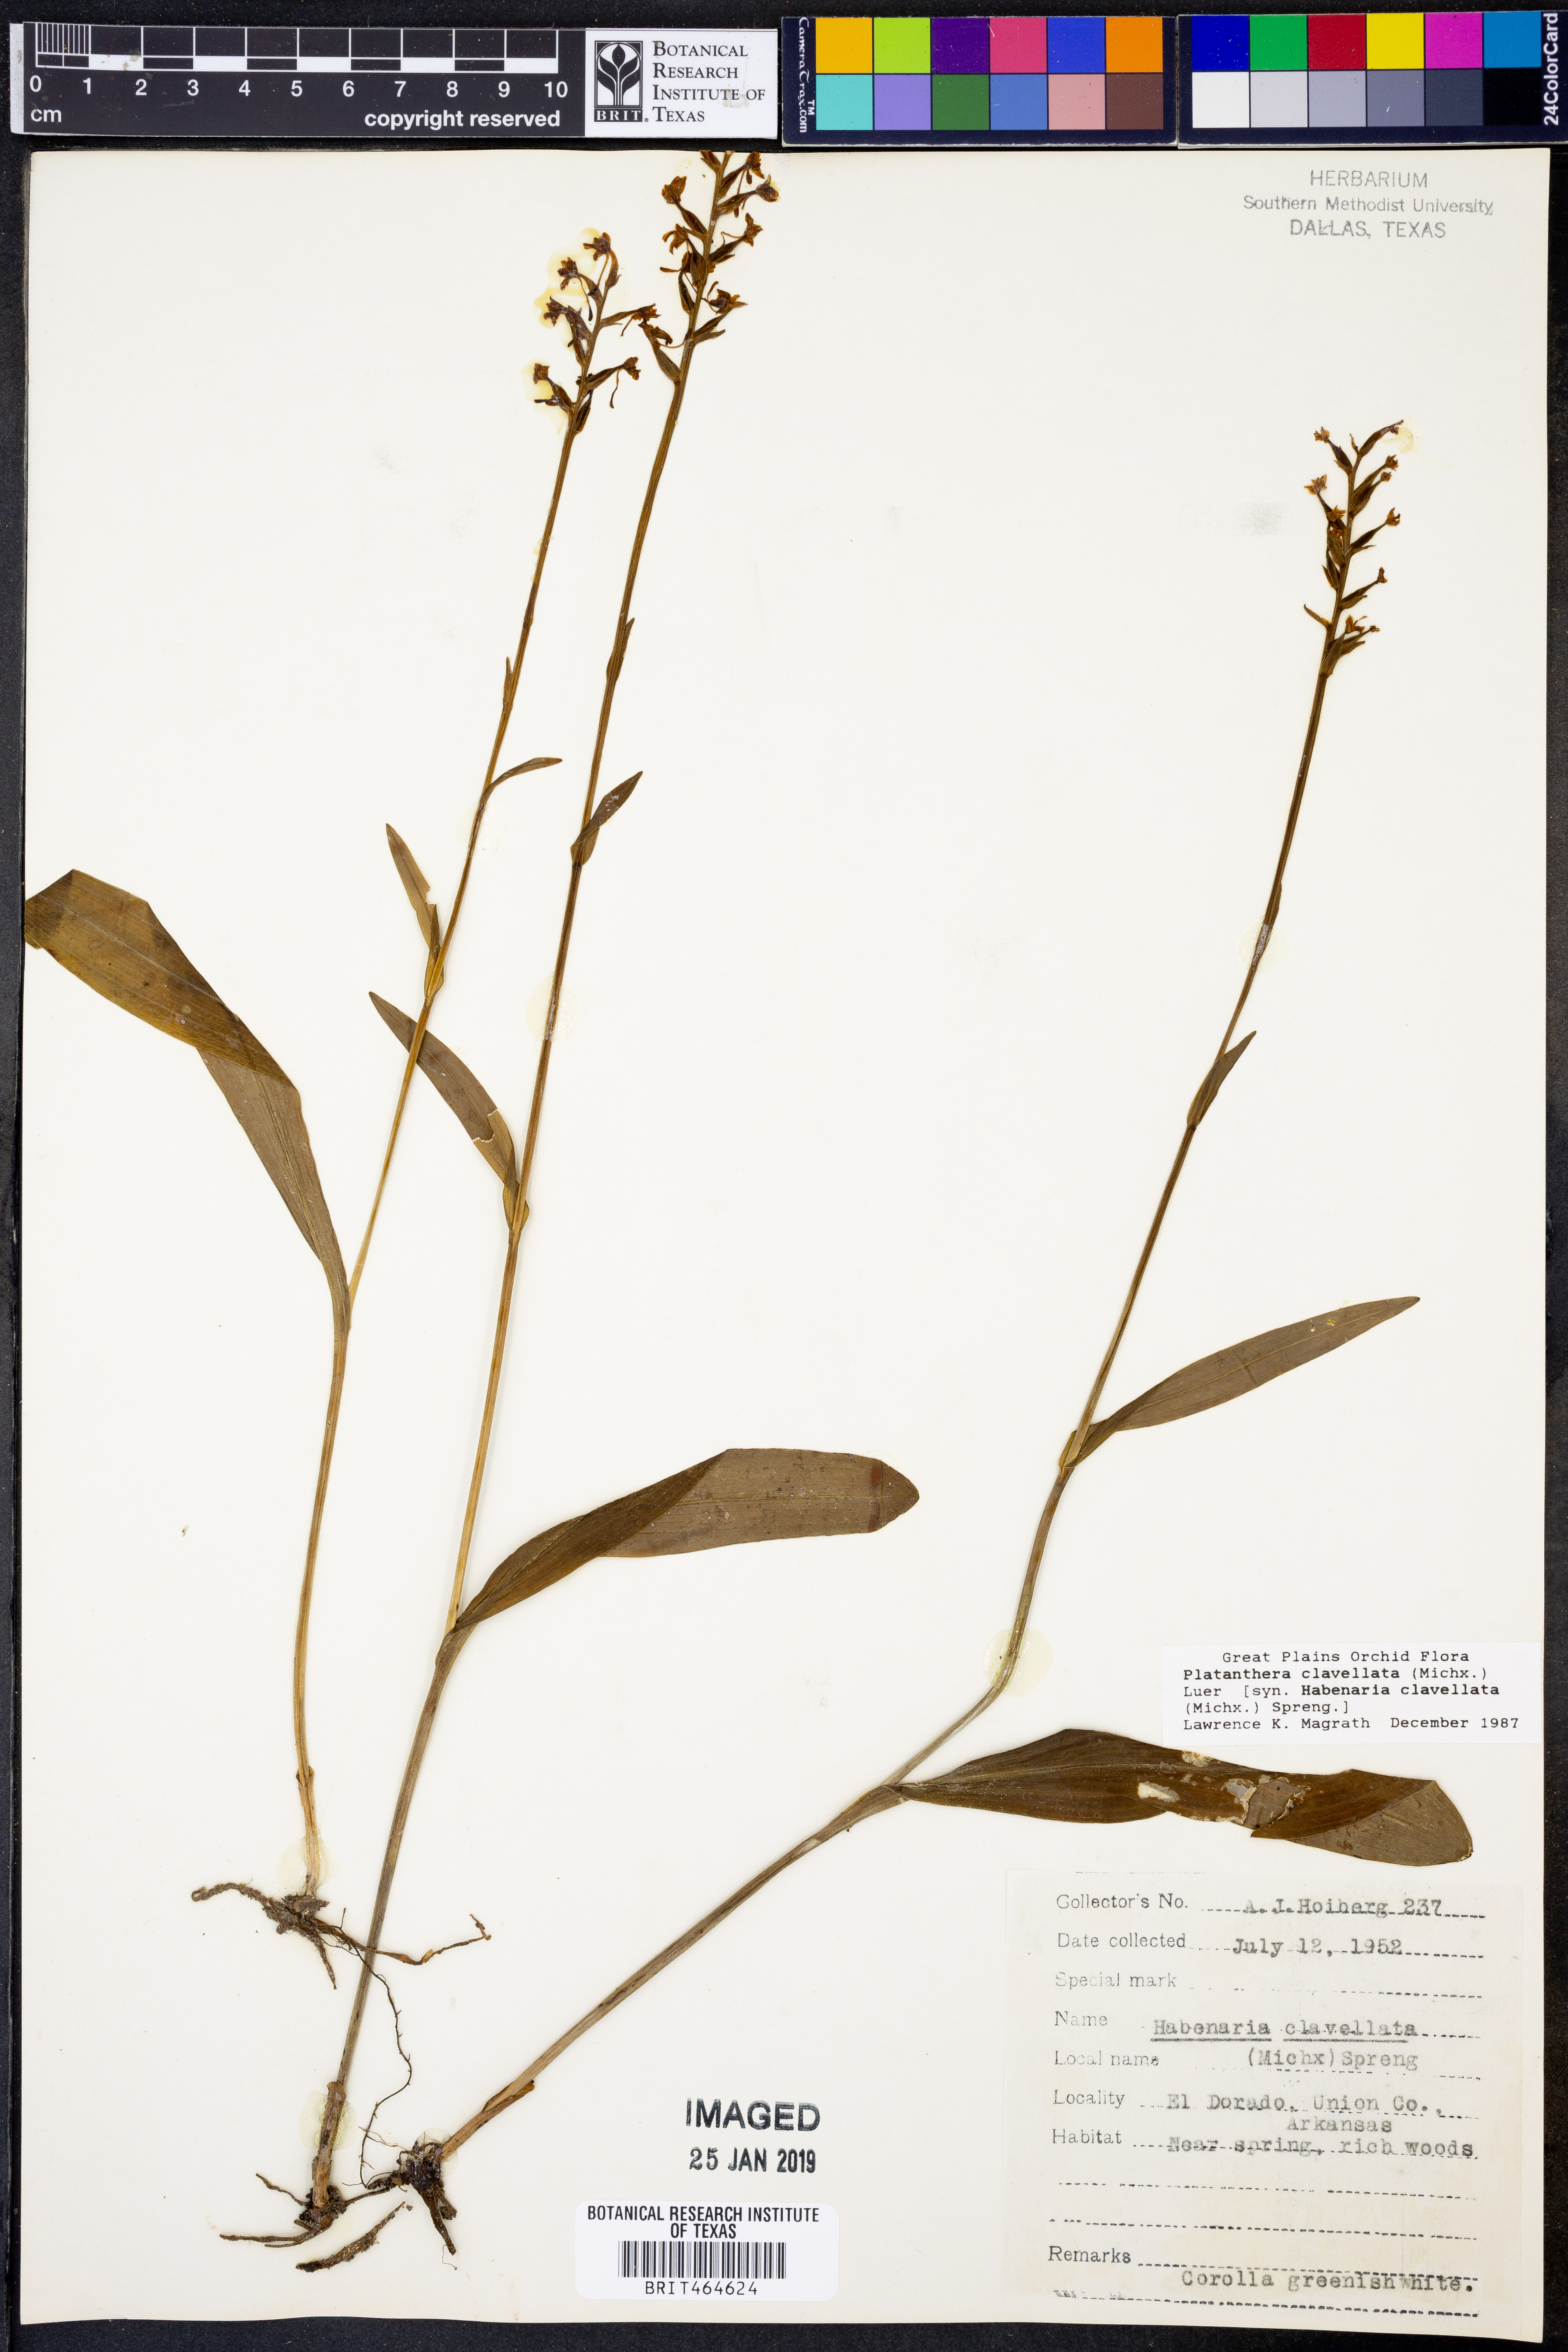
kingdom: Plantae
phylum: Tracheophyta
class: Liliopsida
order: Asparagales
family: Orchidaceae
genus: Platanthera
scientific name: Platanthera clavellata
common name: Club-spur orchid
